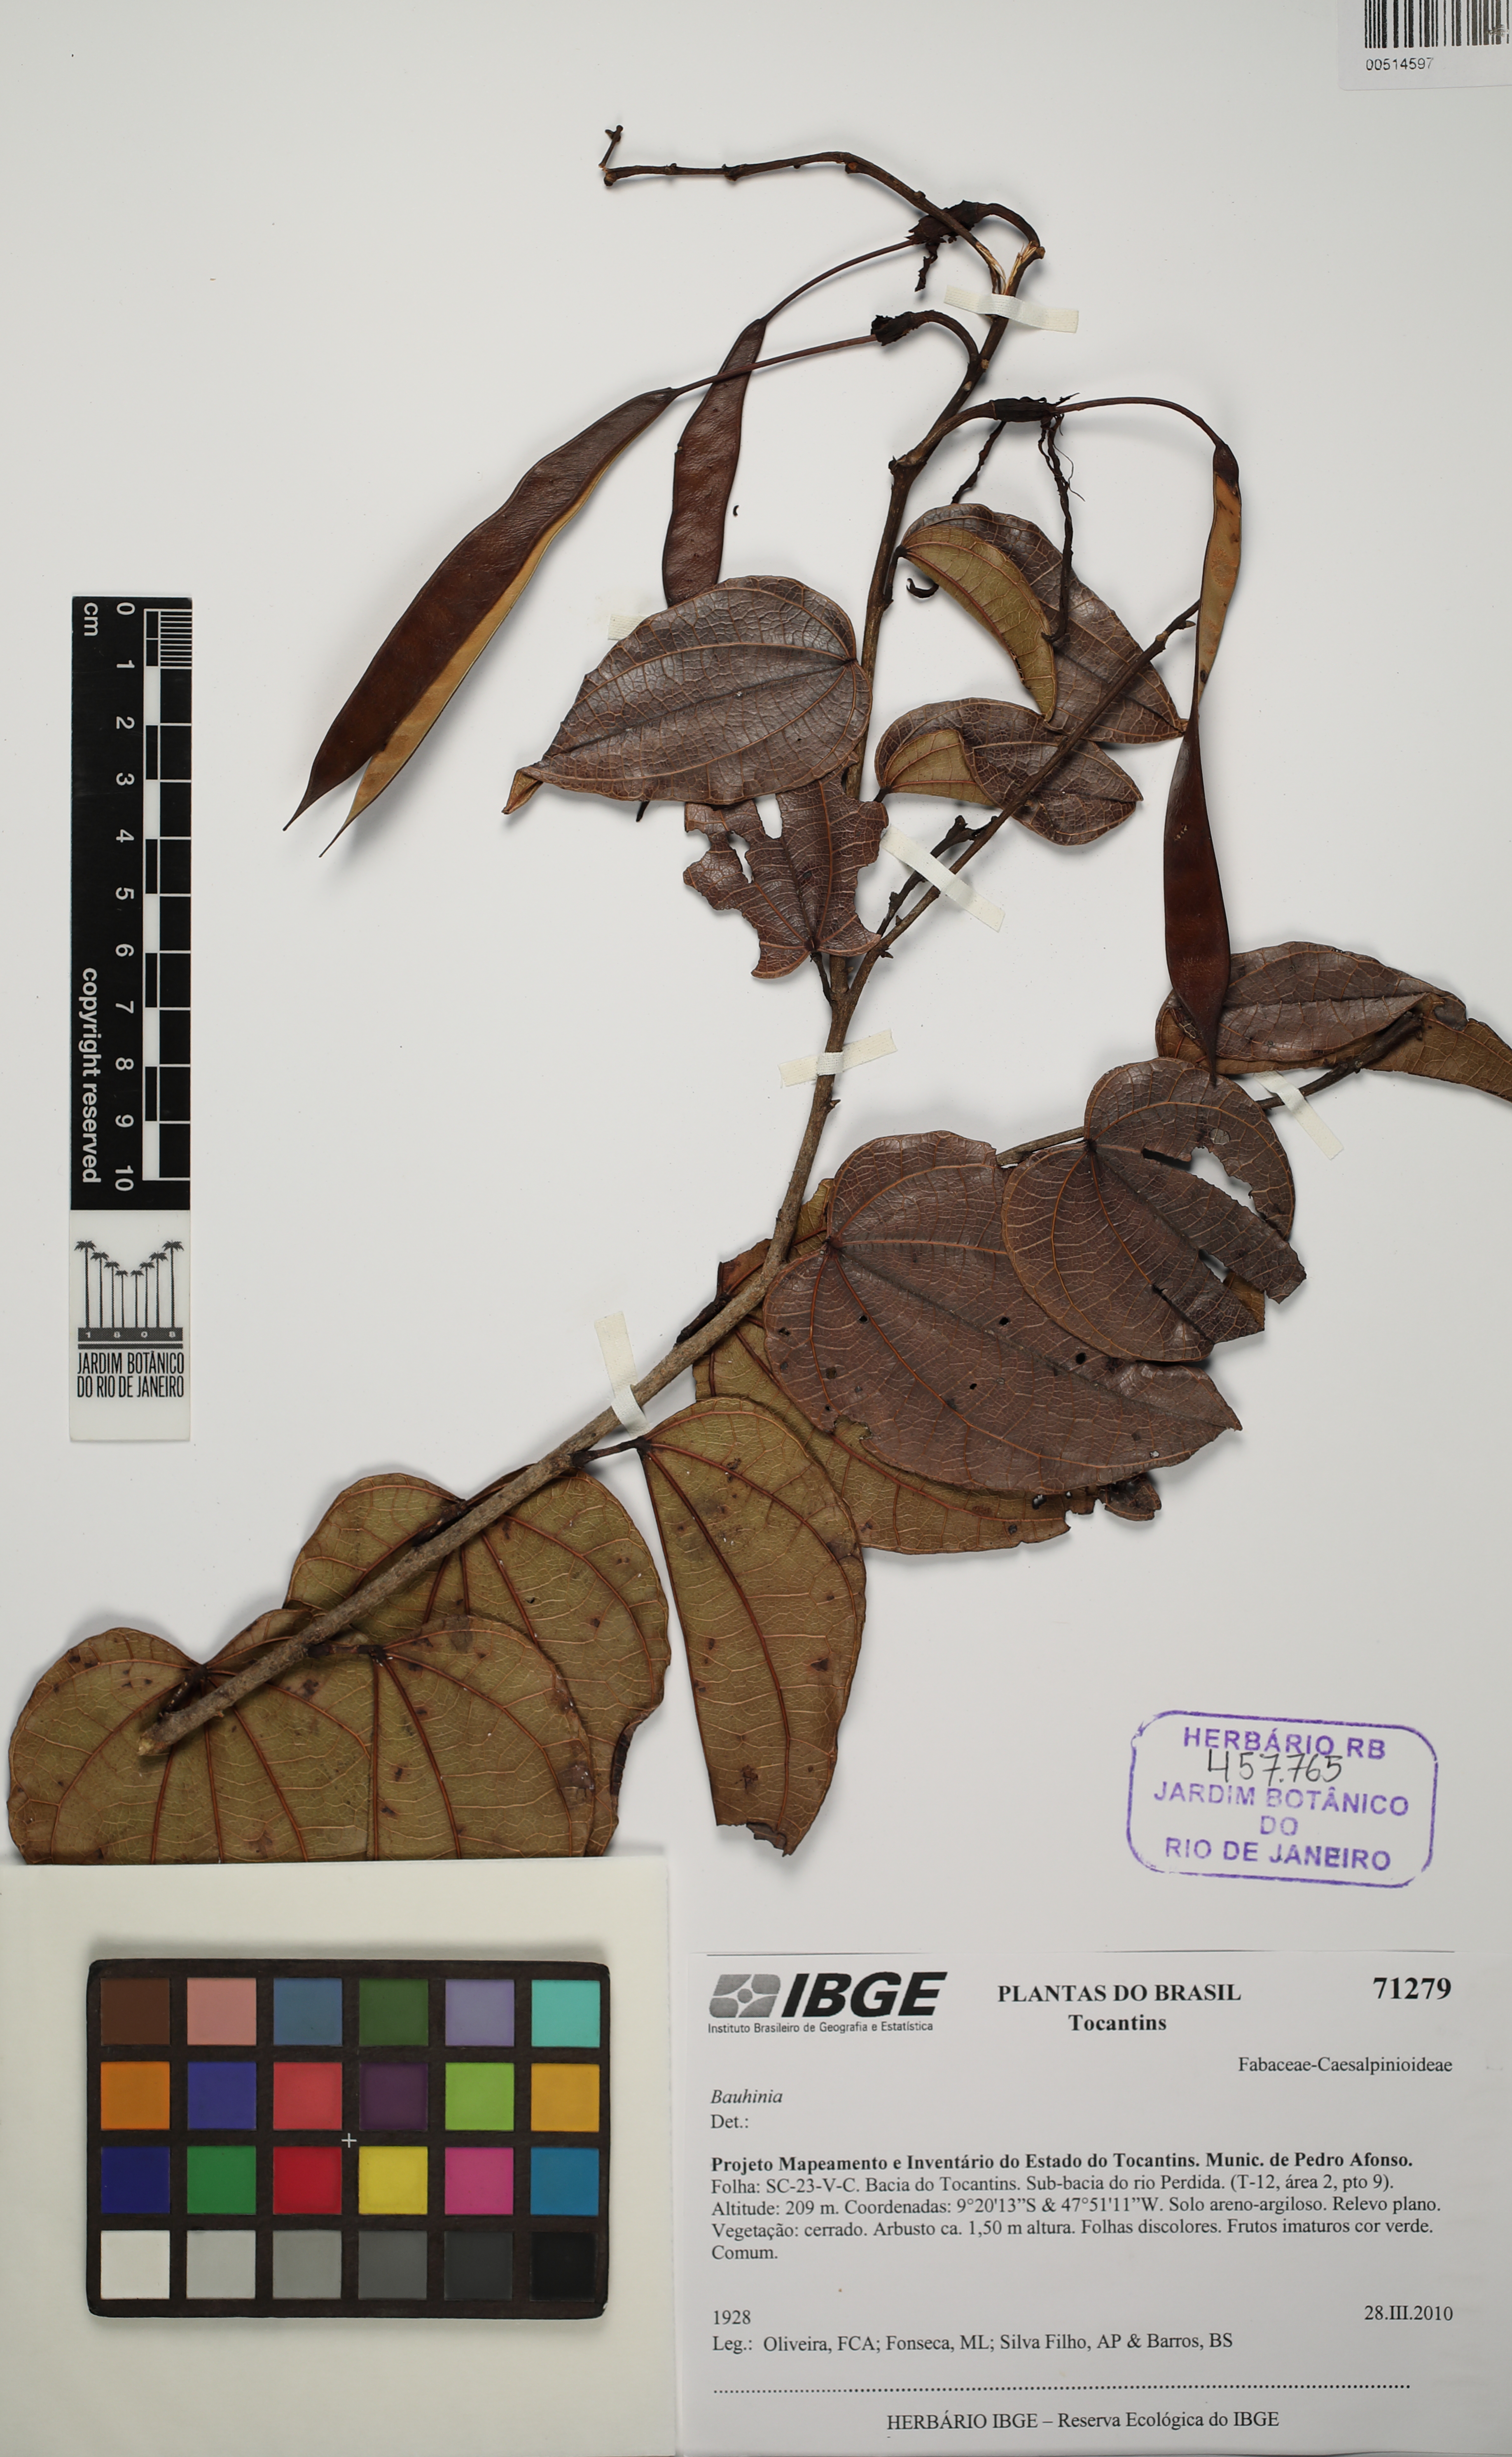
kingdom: Plantae
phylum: Tracheophyta
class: Magnoliopsida
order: Fabales
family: Fabaceae
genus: Bauhinia
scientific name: Bauhinia
